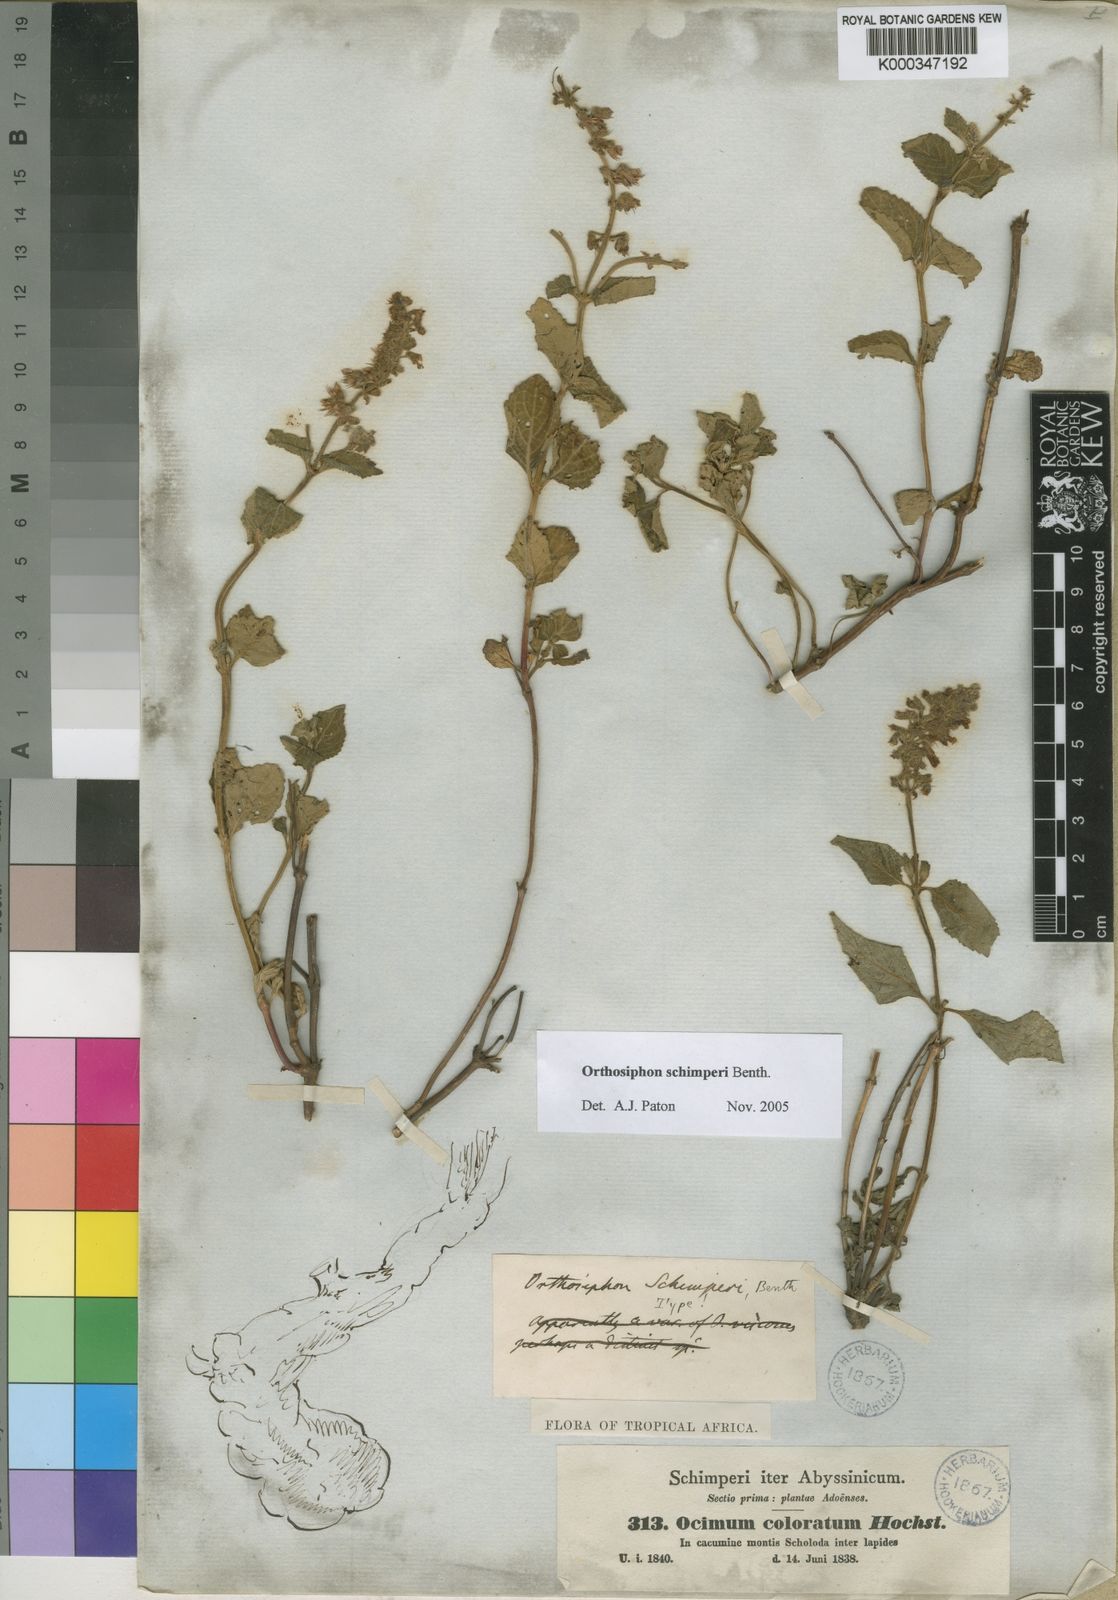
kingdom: Plantae
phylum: Tracheophyta
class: Magnoliopsida
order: Lamiales
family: Lamiaceae
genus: Orthosiphon
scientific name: Orthosiphon schimperi
